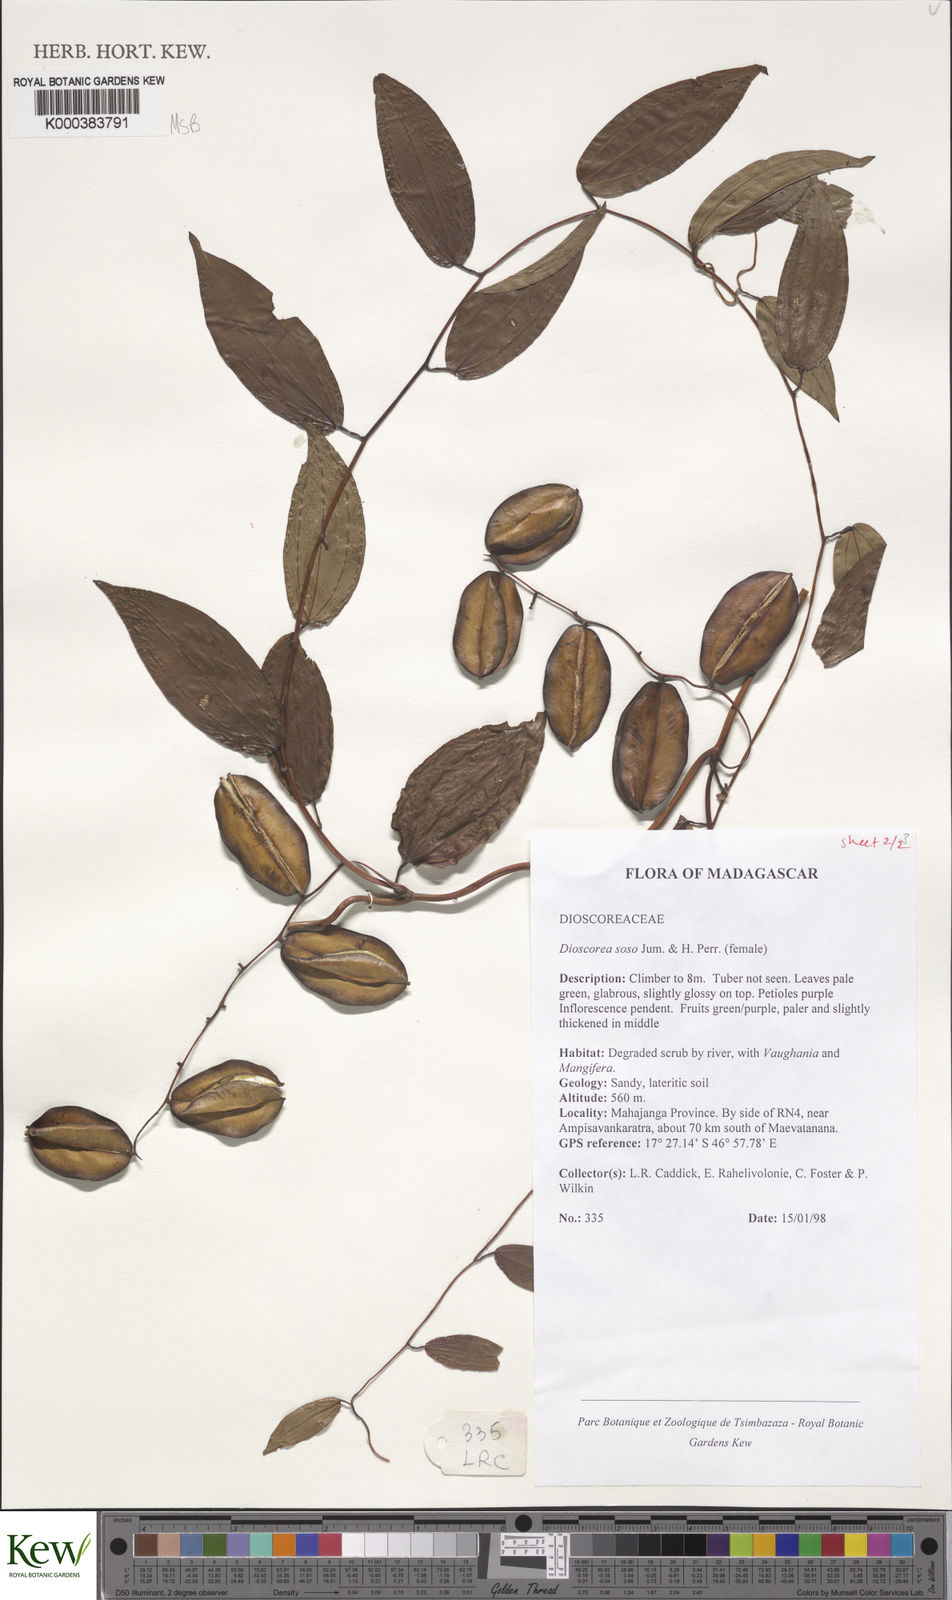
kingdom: Plantae
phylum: Tracheophyta
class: Liliopsida
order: Dioscoreales
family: Dioscoreaceae
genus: Dioscorea
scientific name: Dioscorea
